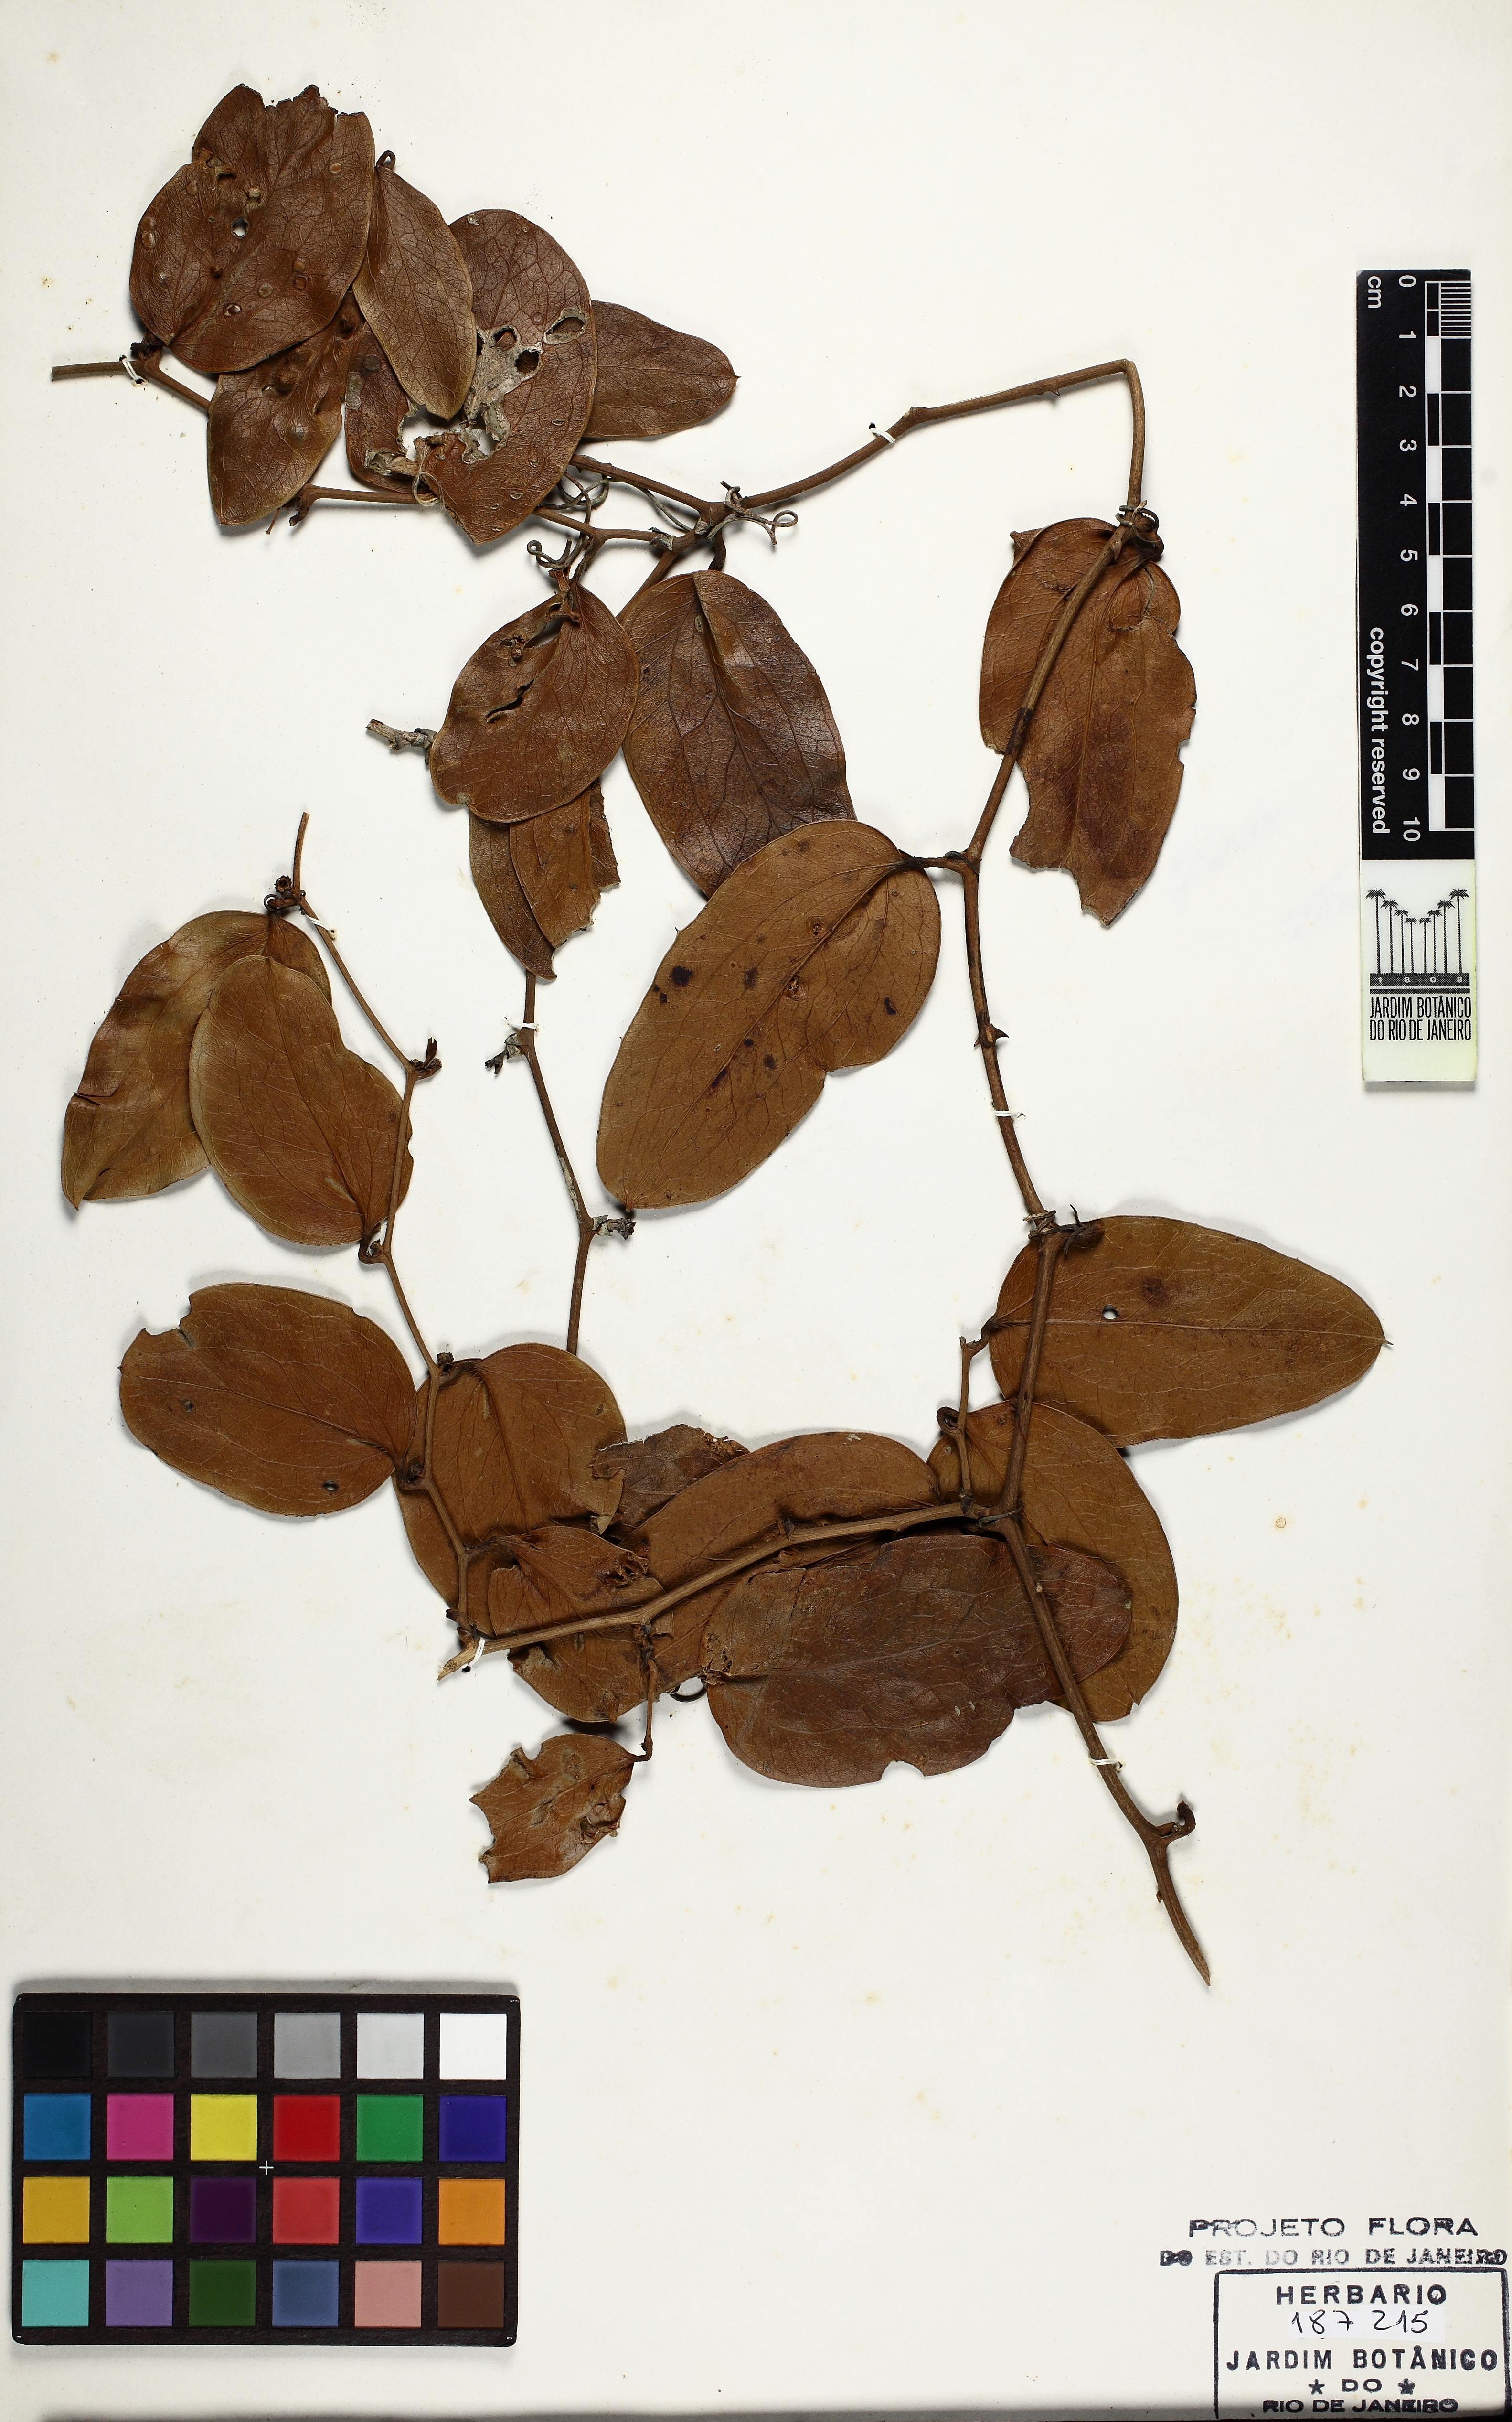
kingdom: Plantae
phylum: Tracheophyta
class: Liliopsida
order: Liliales
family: Smilacaceae
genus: Smilax
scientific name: Smilax rufescens
